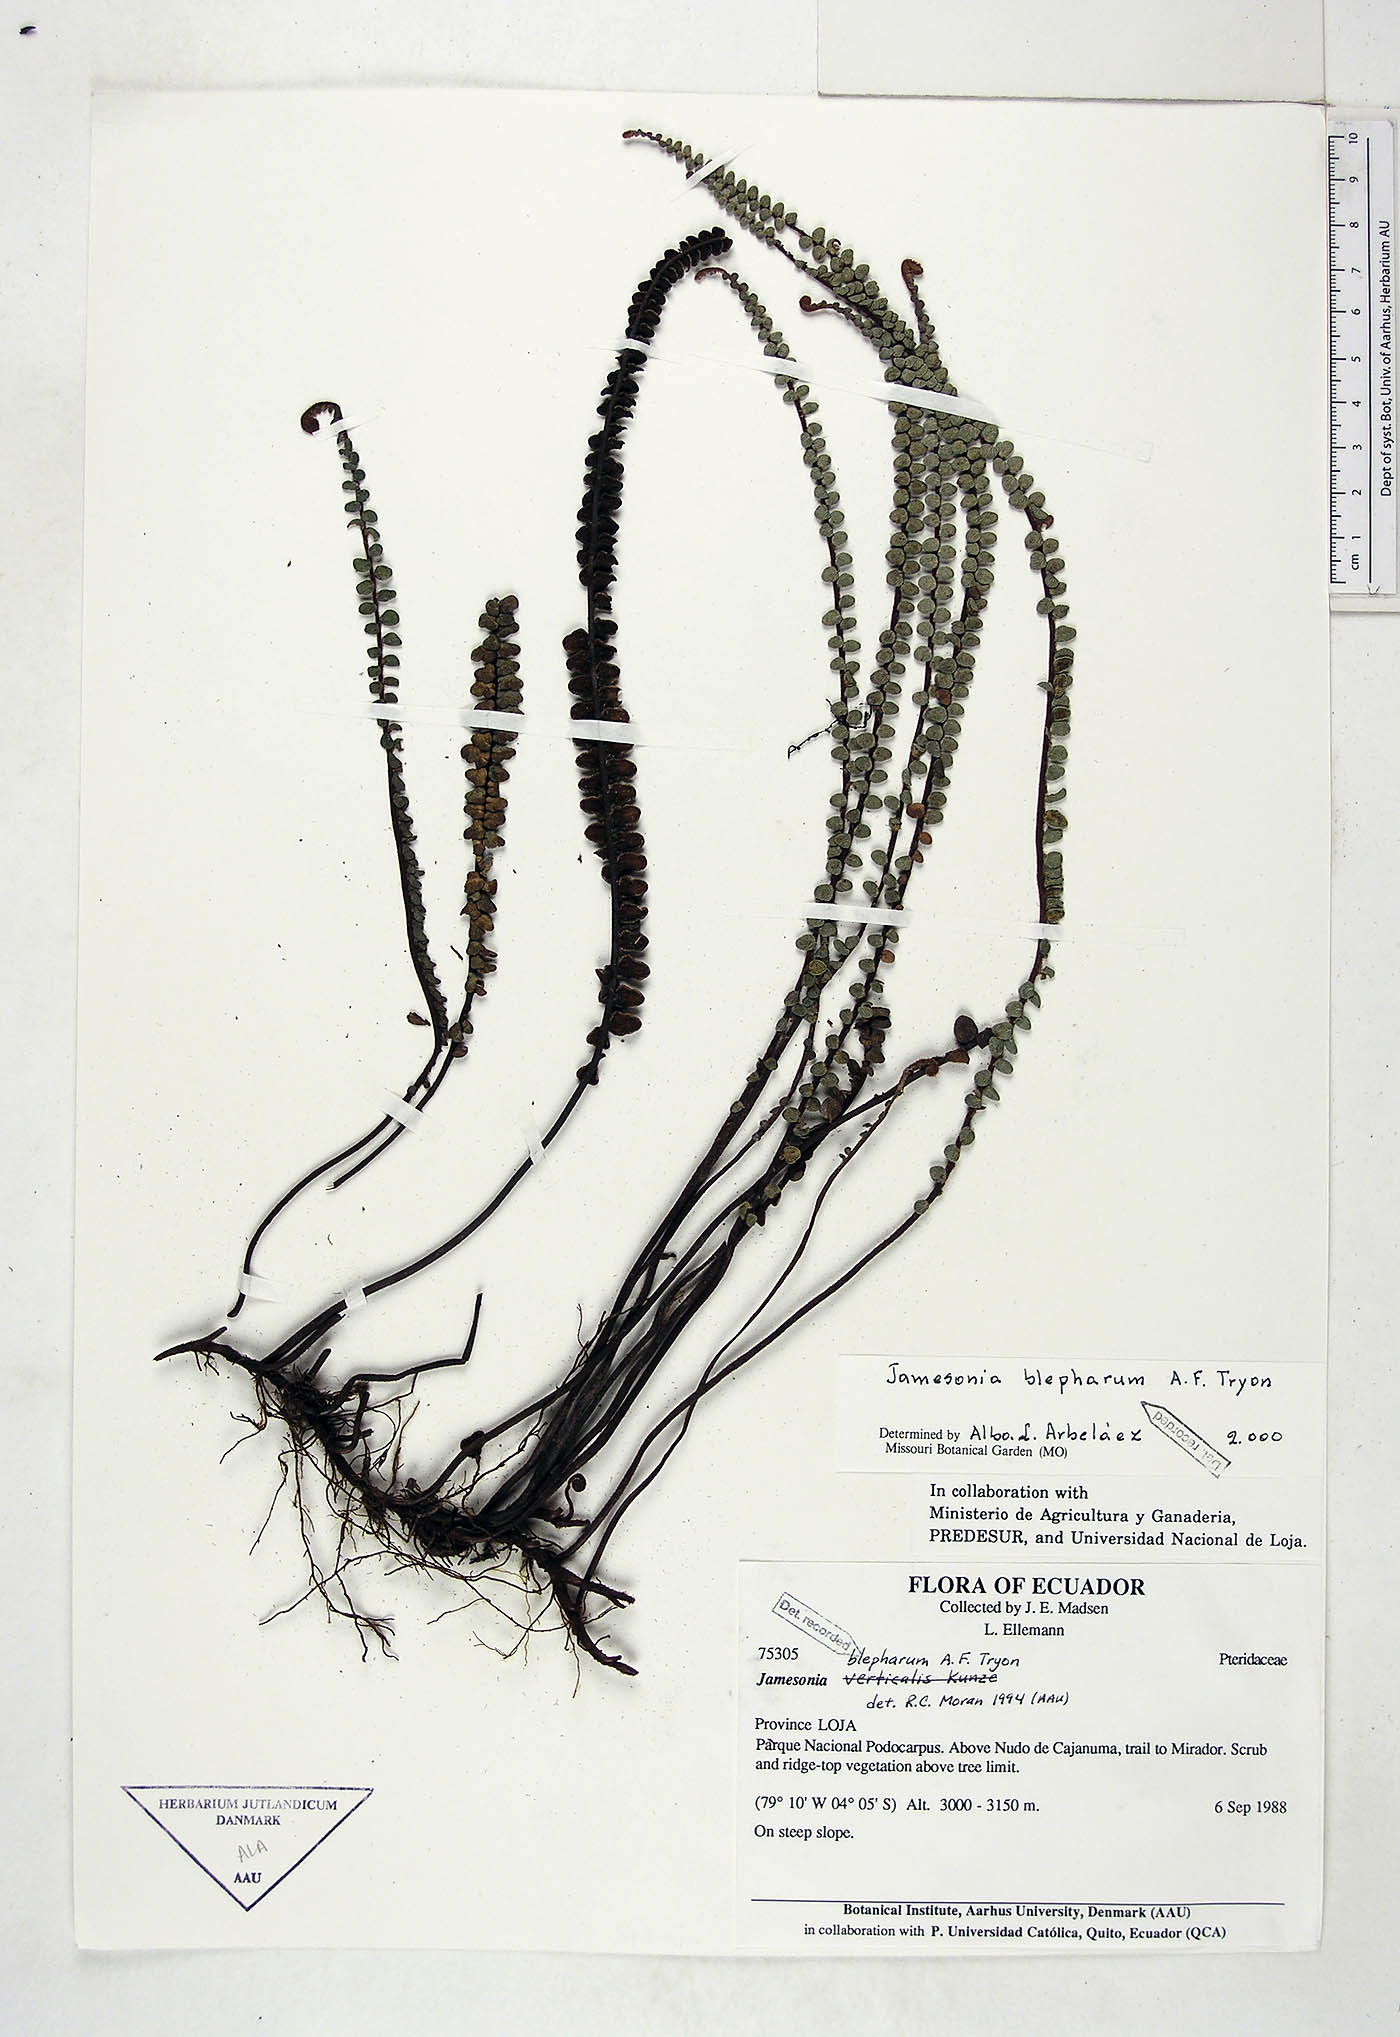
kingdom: Plantae
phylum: Tracheophyta
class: Polypodiopsida
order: Polypodiales
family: Pteridaceae
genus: Jamesonia
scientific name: Jamesonia blepharum
